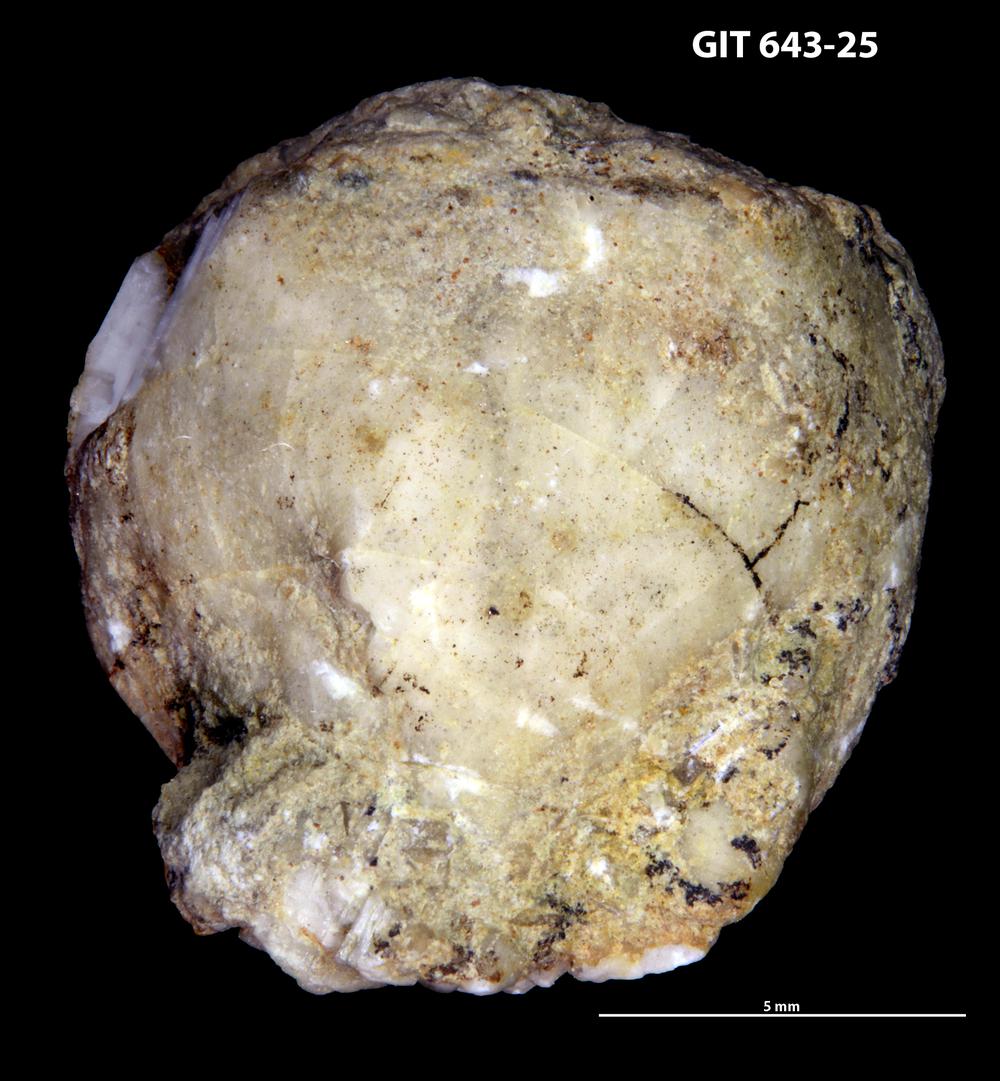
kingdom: Animalia
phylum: Echinodermata
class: Crinoidea
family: Cyathocystidae
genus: Cyathocystis
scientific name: Cyathocystis
